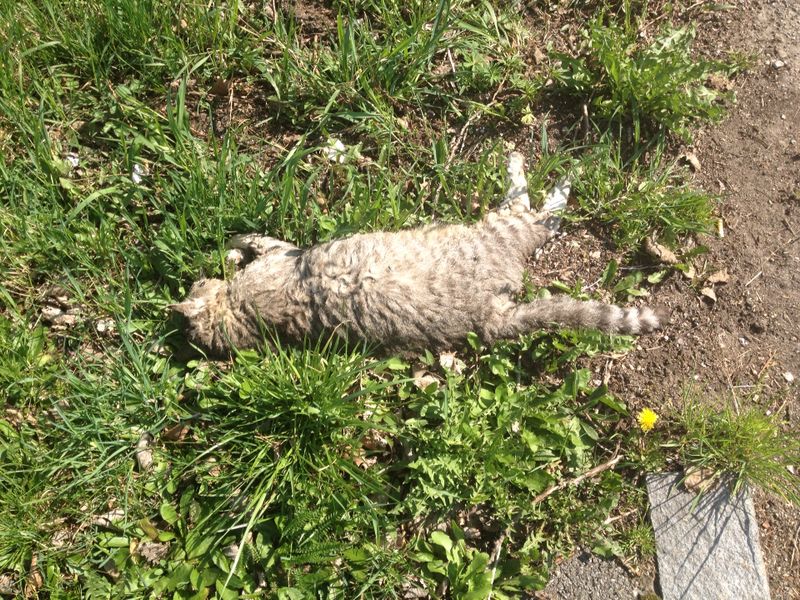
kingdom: Animalia
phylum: Chordata
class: Mammalia
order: Carnivora
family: Felidae
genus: Felis
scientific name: Felis catus
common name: Domestic cat
